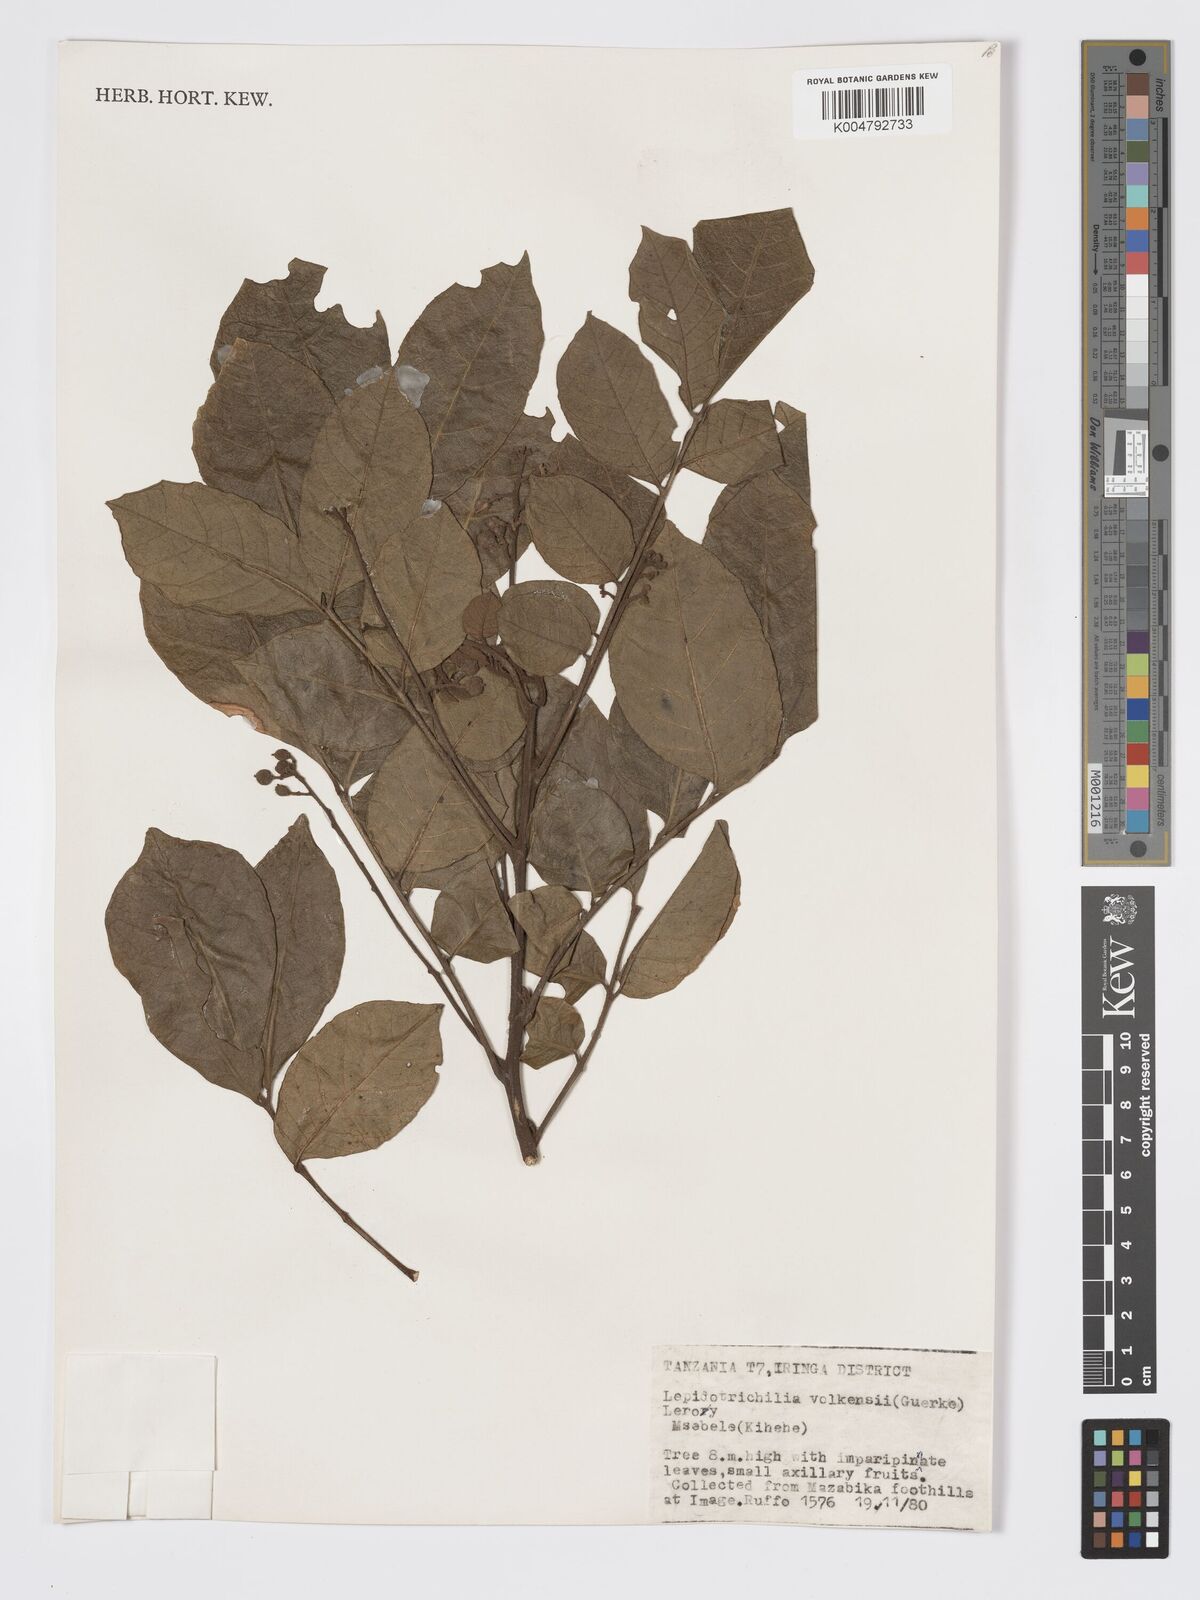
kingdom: Plantae
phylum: Tracheophyta
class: Magnoliopsida
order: Sapindales
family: Meliaceae
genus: Lepidotrichilia
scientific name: Lepidotrichilia volkensii
